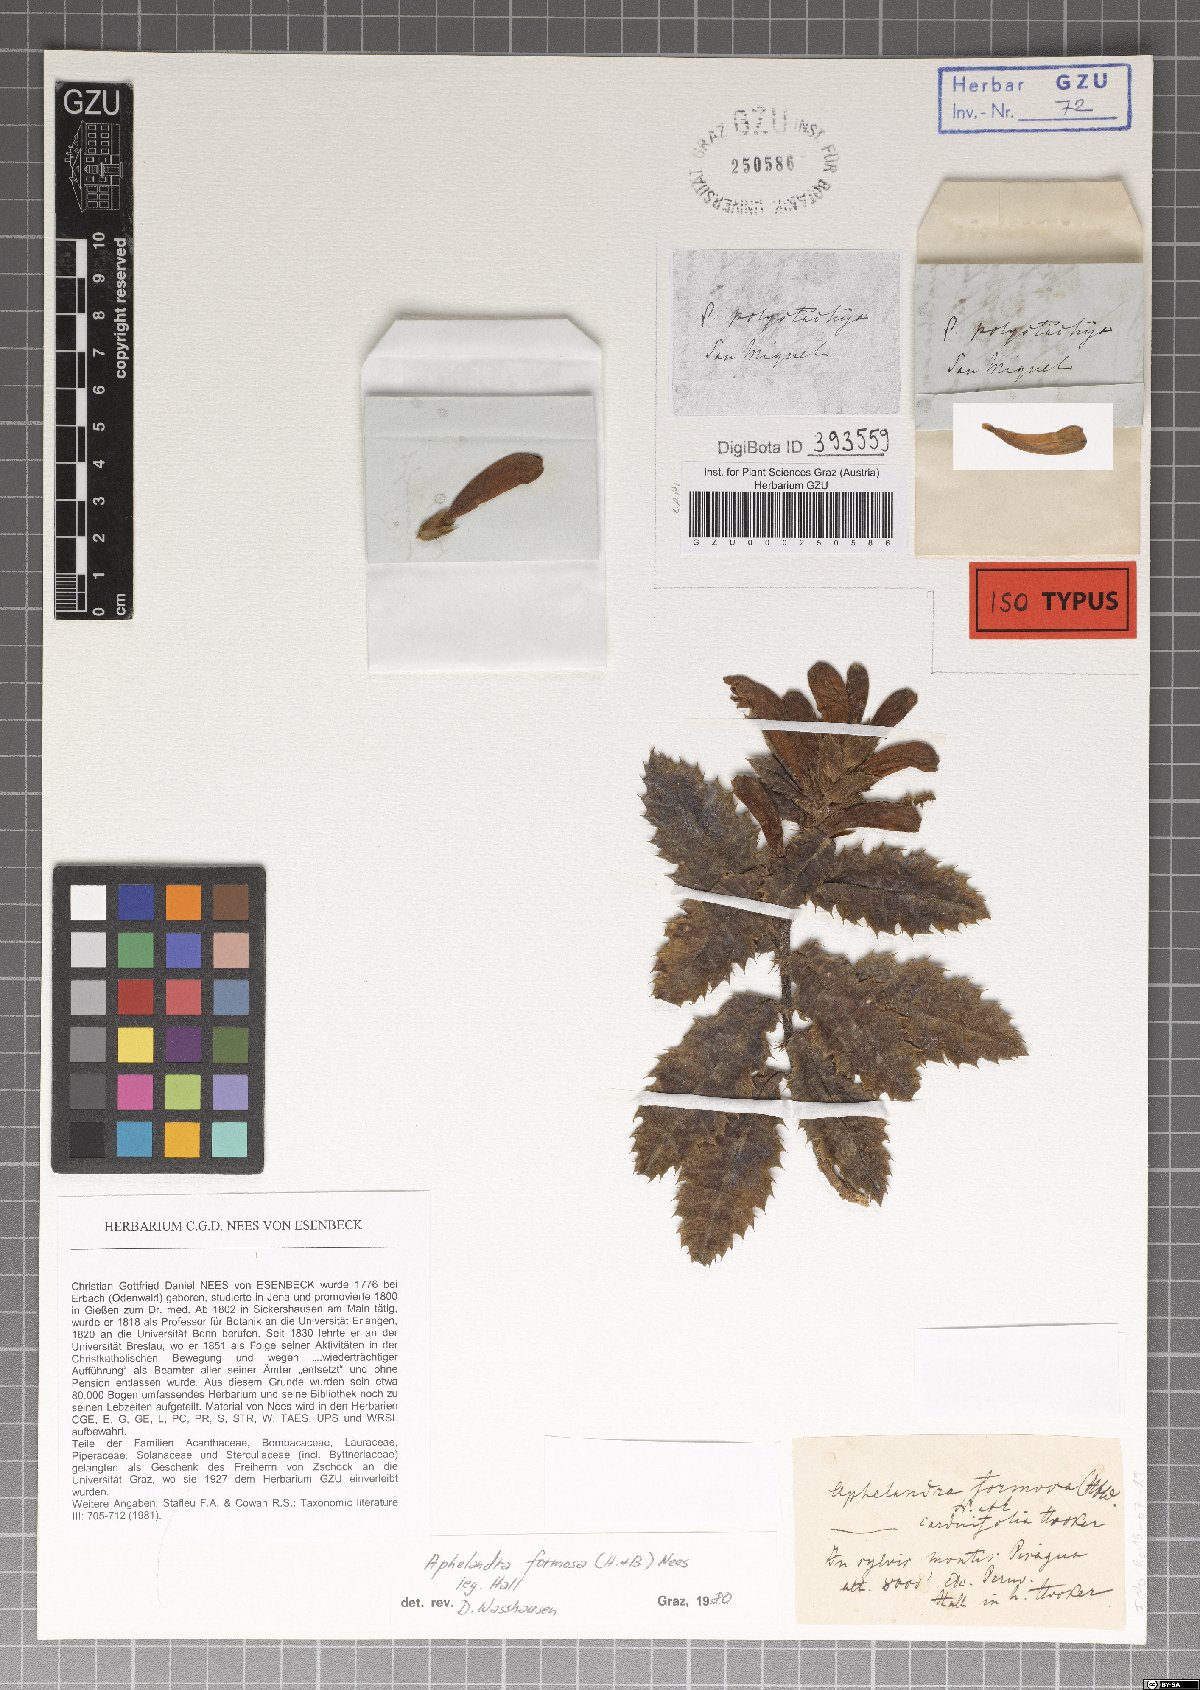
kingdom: Plantae
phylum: Tracheophyta
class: Magnoliopsida
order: Lamiales
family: Acanthaceae
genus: Aphelandra
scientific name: Aphelandra formosa
